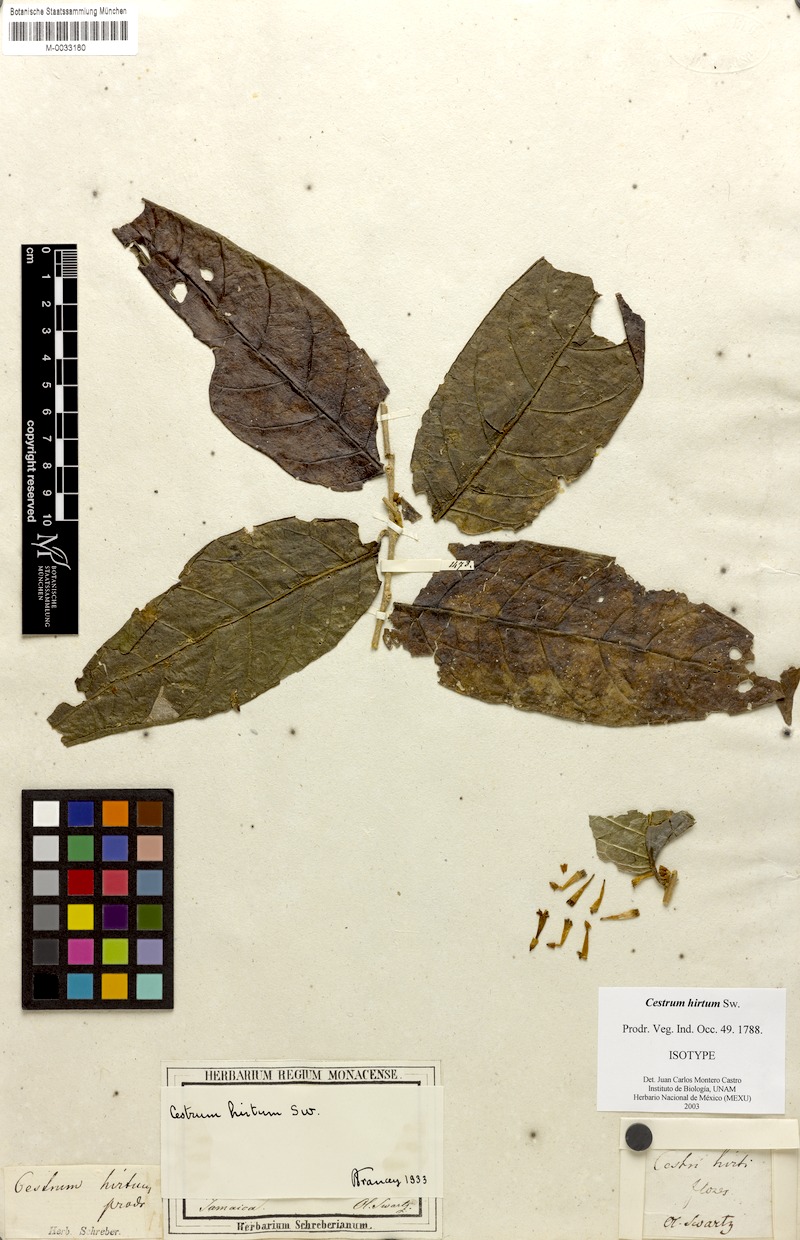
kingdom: Plantae
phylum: Tracheophyta
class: Magnoliopsida
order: Solanales
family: Solanaceae
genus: Cestrum
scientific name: Cestrum hirtum
